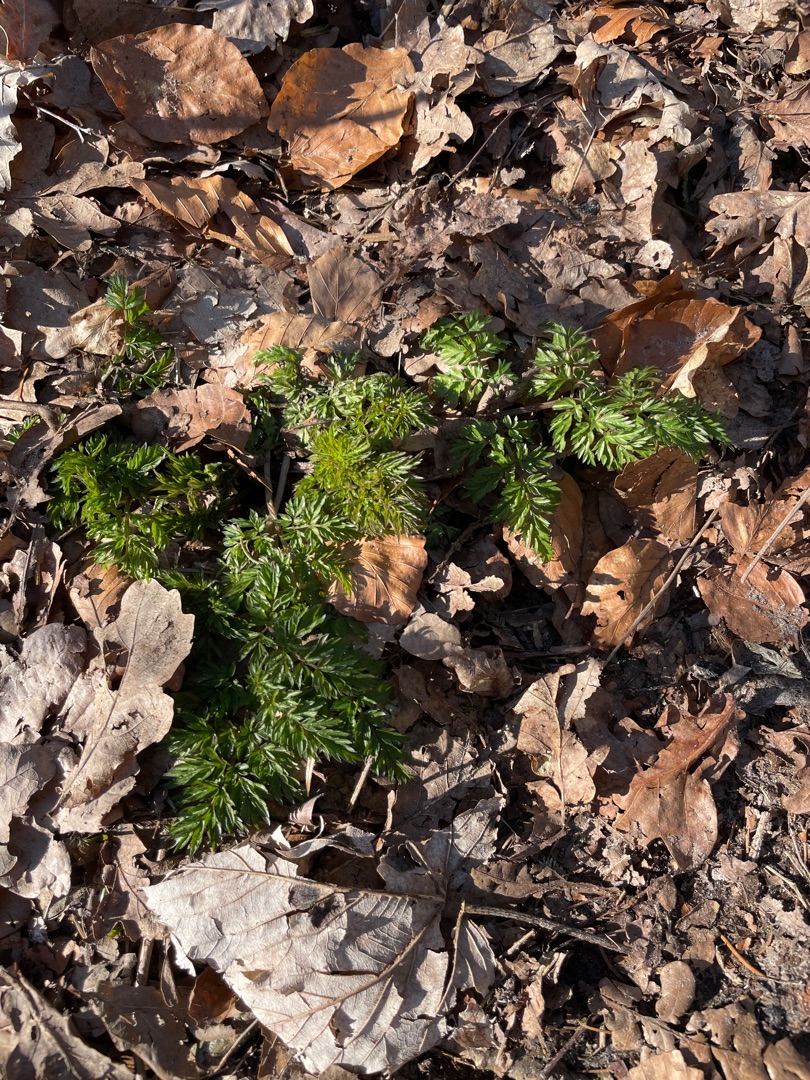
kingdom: Plantae
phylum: Tracheophyta
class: Magnoliopsida
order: Apiales
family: Apiaceae
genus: Anthriscus
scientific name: Anthriscus sylvestris
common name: Vild kørvel
